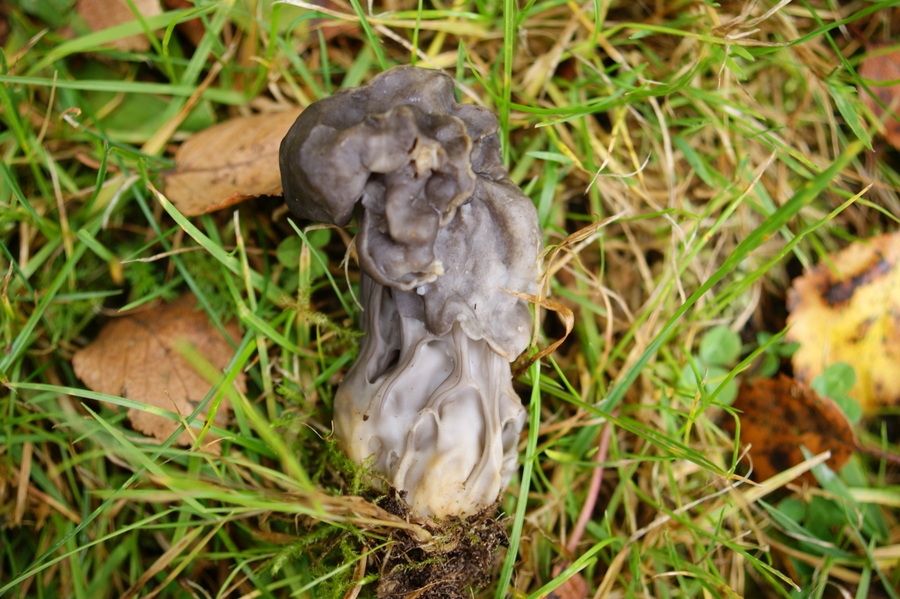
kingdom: Fungi
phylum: Ascomycota
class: Pezizomycetes
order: Pezizales
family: Helvellaceae
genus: Helvella
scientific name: Helvella lacunosa
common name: grubet foldhat
